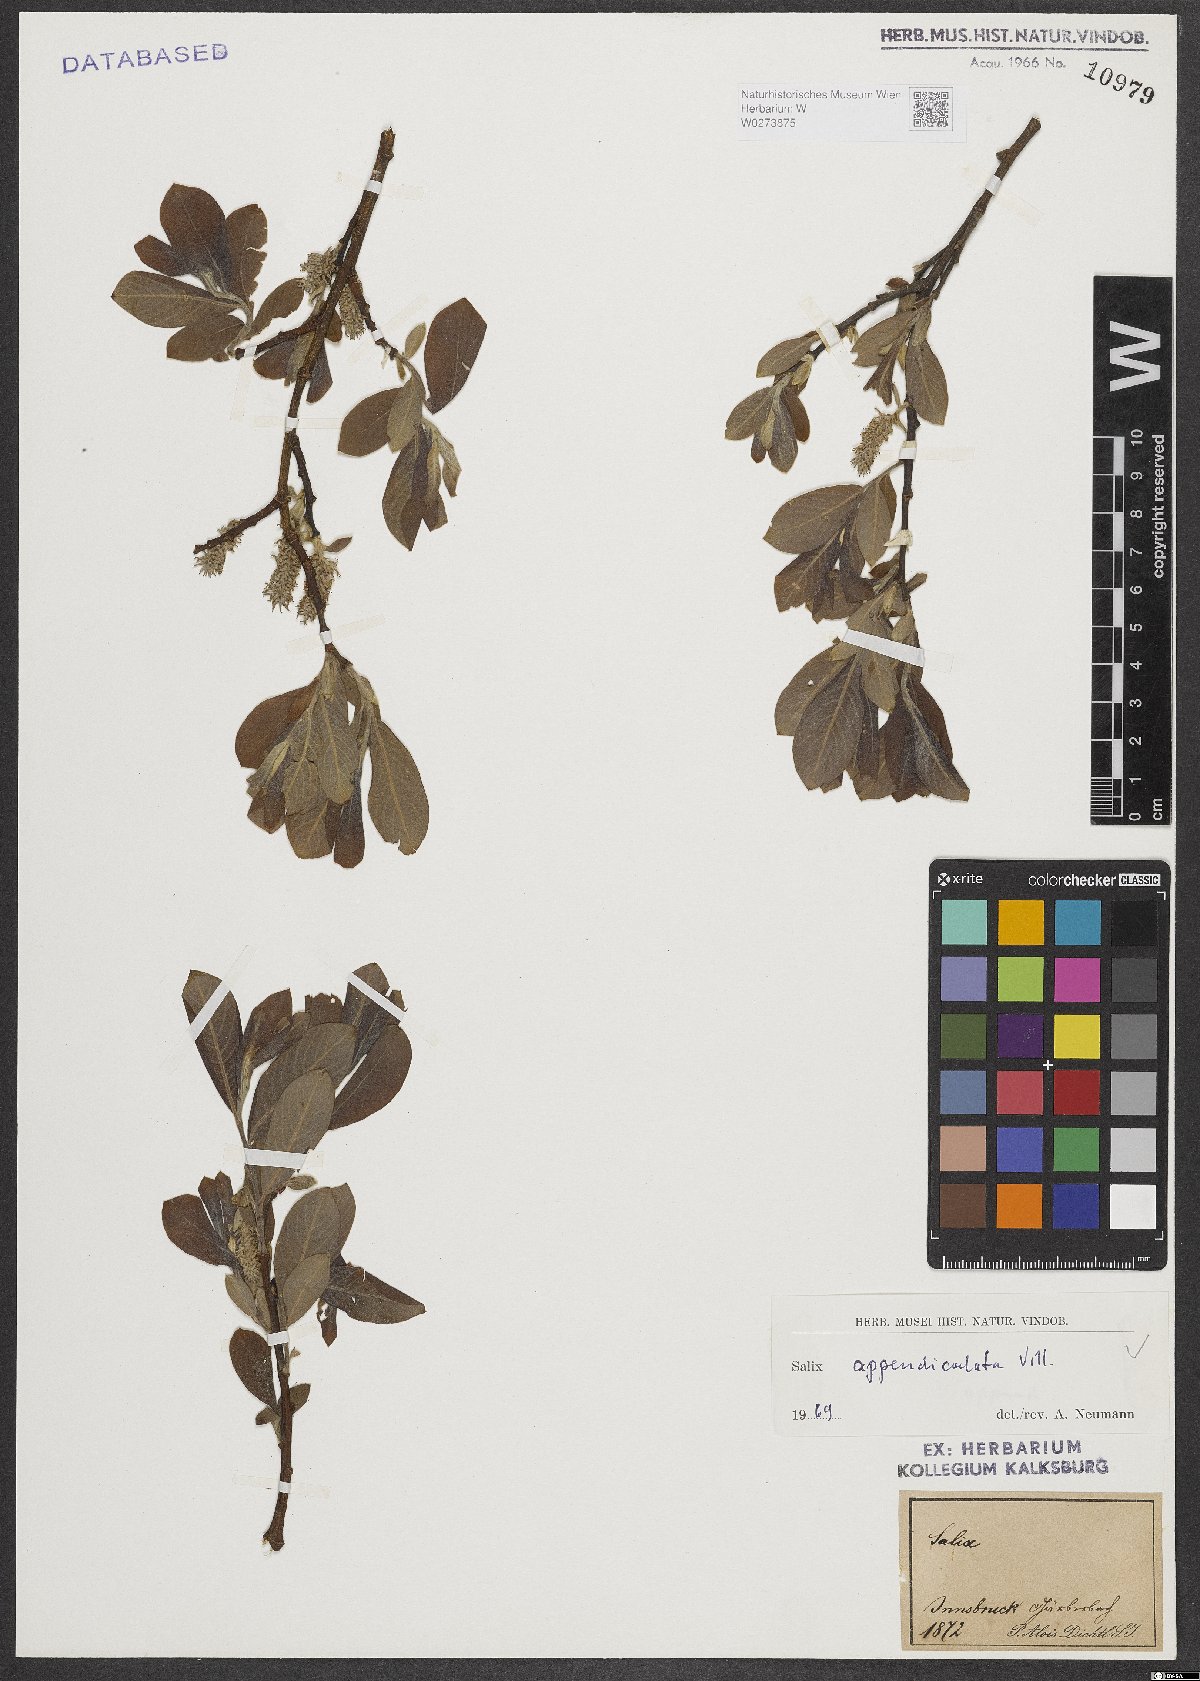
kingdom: Plantae
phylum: Tracheophyta
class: Magnoliopsida
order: Malpighiales
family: Salicaceae
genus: Salix
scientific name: Salix appendiculata
